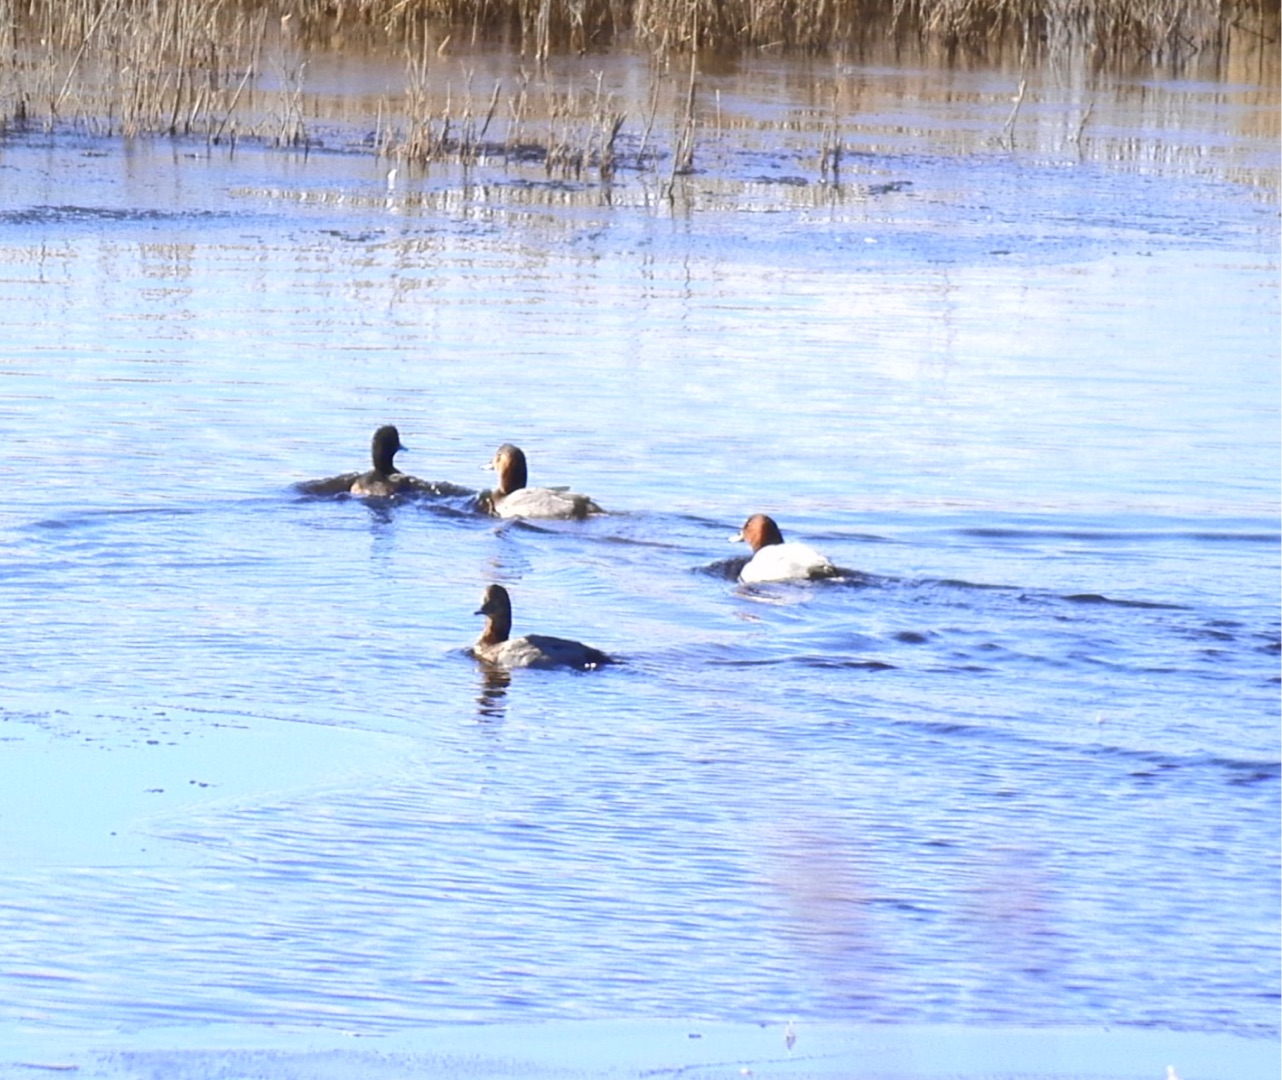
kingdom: Animalia
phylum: Chordata
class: Aves
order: Anseriformes
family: Anatidae
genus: Aythya
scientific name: Aythya ferina
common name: Taffeland
